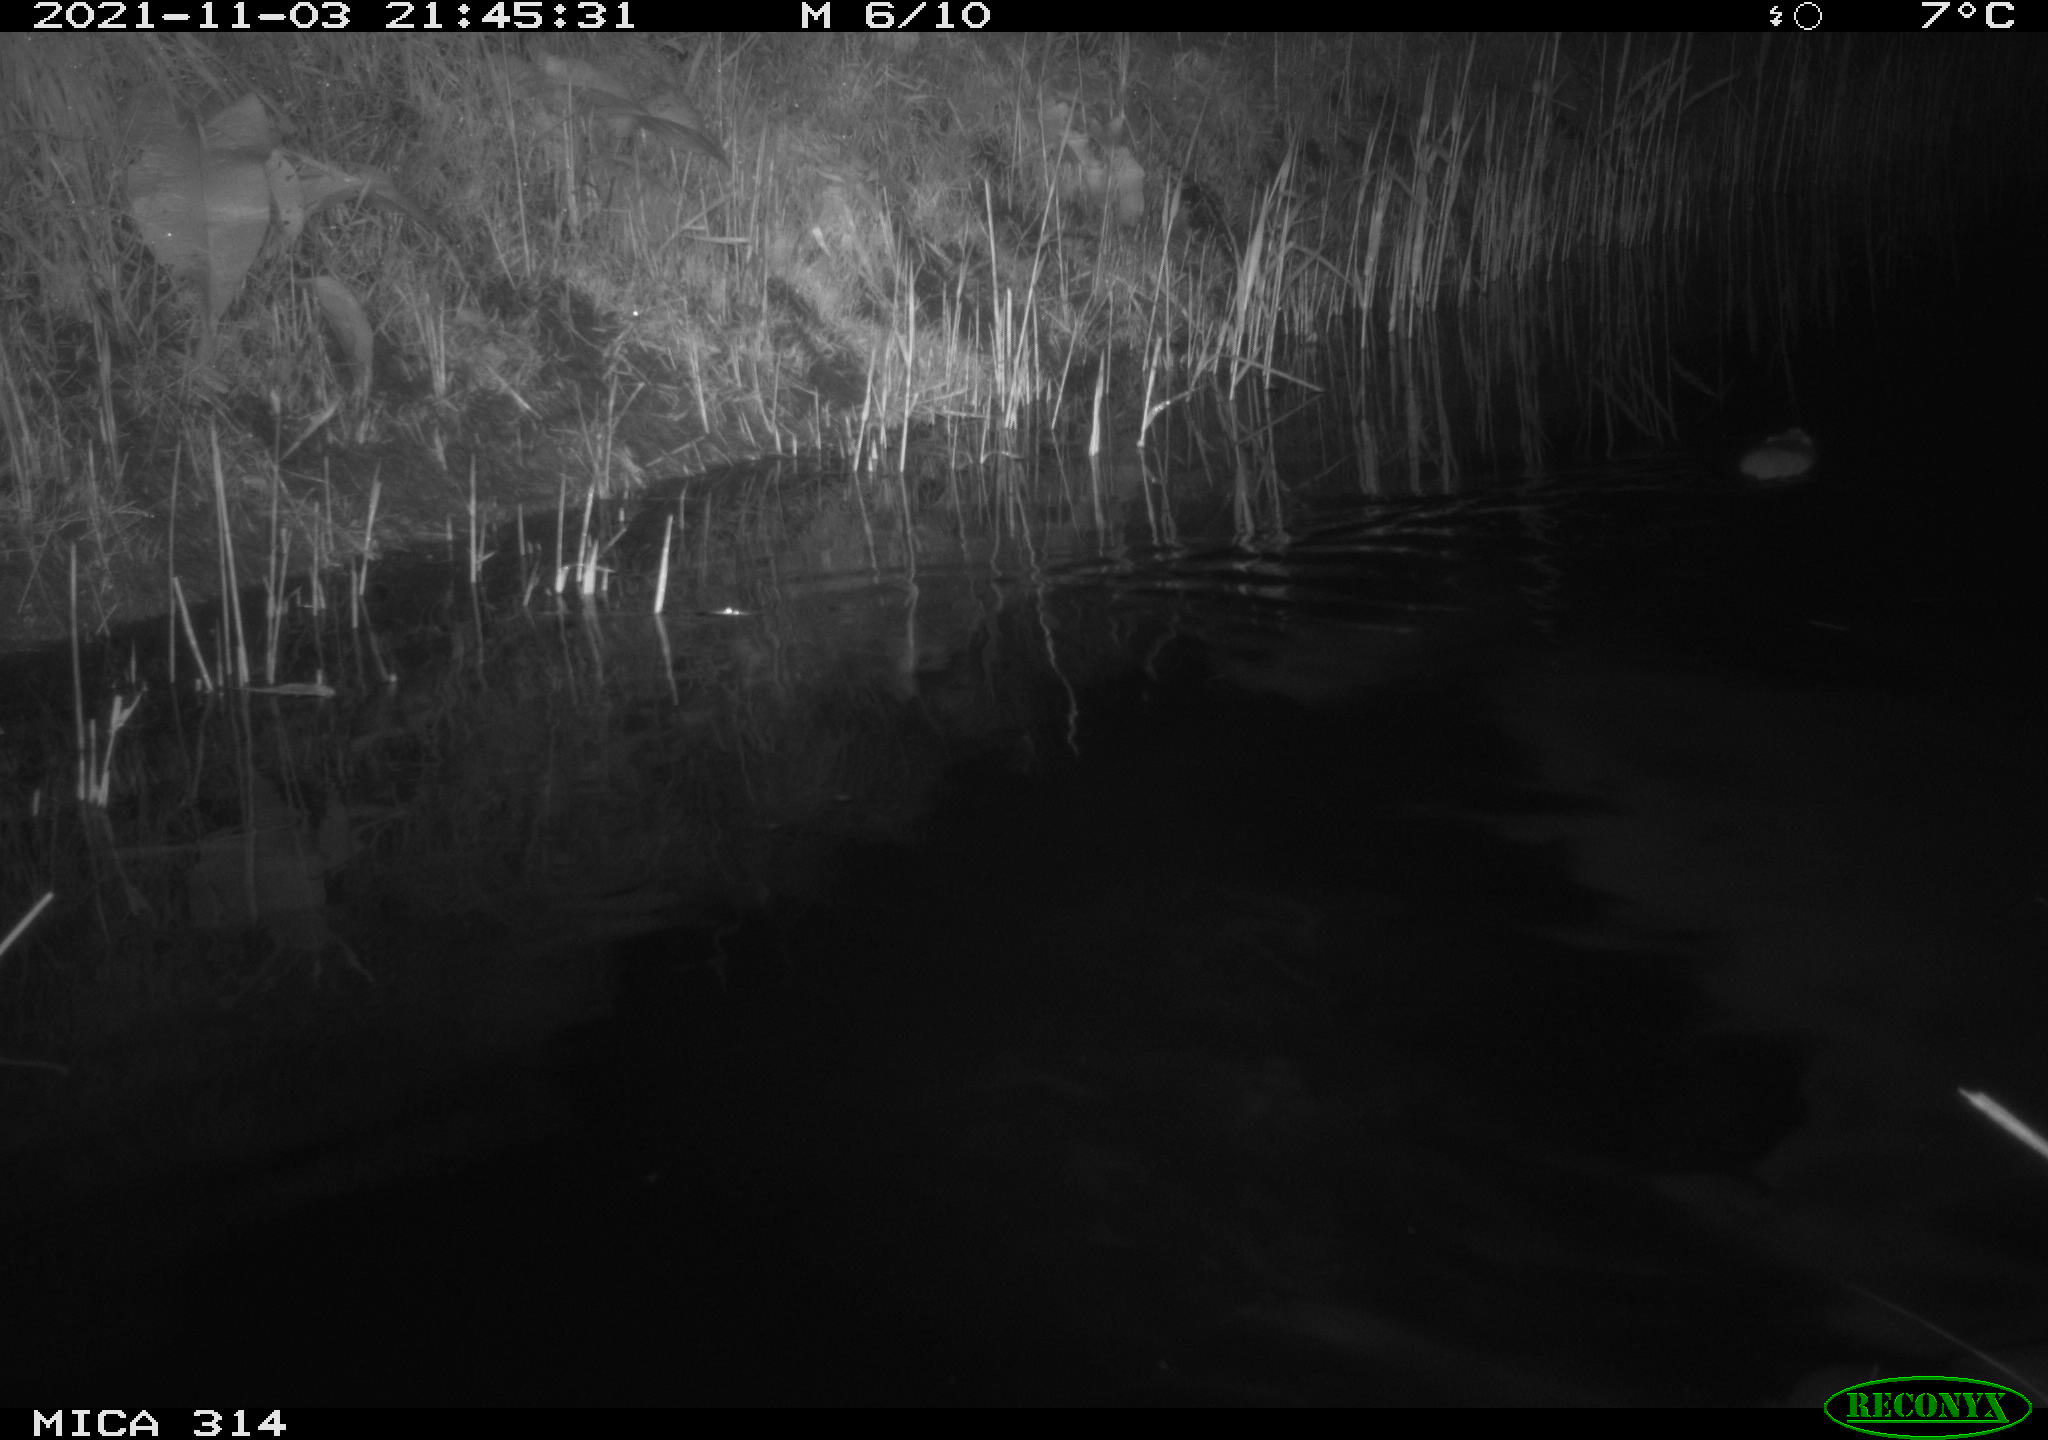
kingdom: Animalia
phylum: Chordata
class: Mammalia
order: Rodentia
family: Muridae
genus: Rattus
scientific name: Rattus norvegicus
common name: Brown rat
